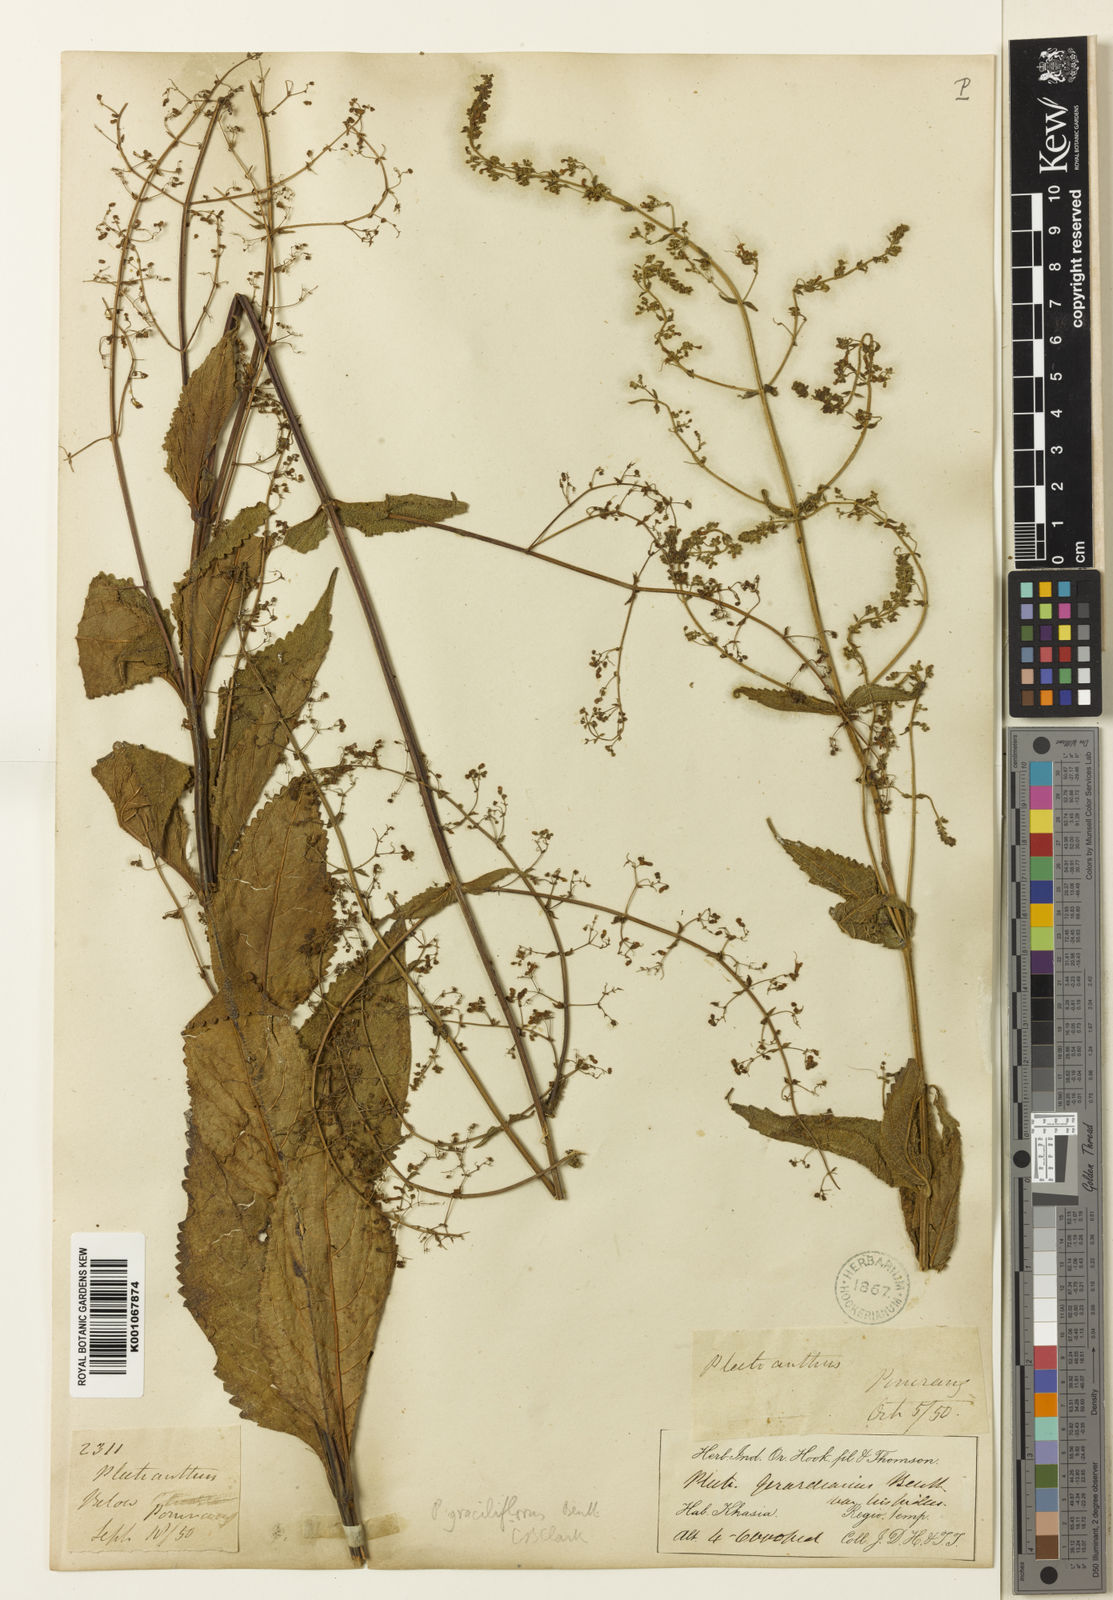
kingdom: Plantae
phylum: Tracheophyta
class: Magnoliopsida
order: Lamiales
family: Lamiaceae
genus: Isodon
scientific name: Isodon lophanthoides
